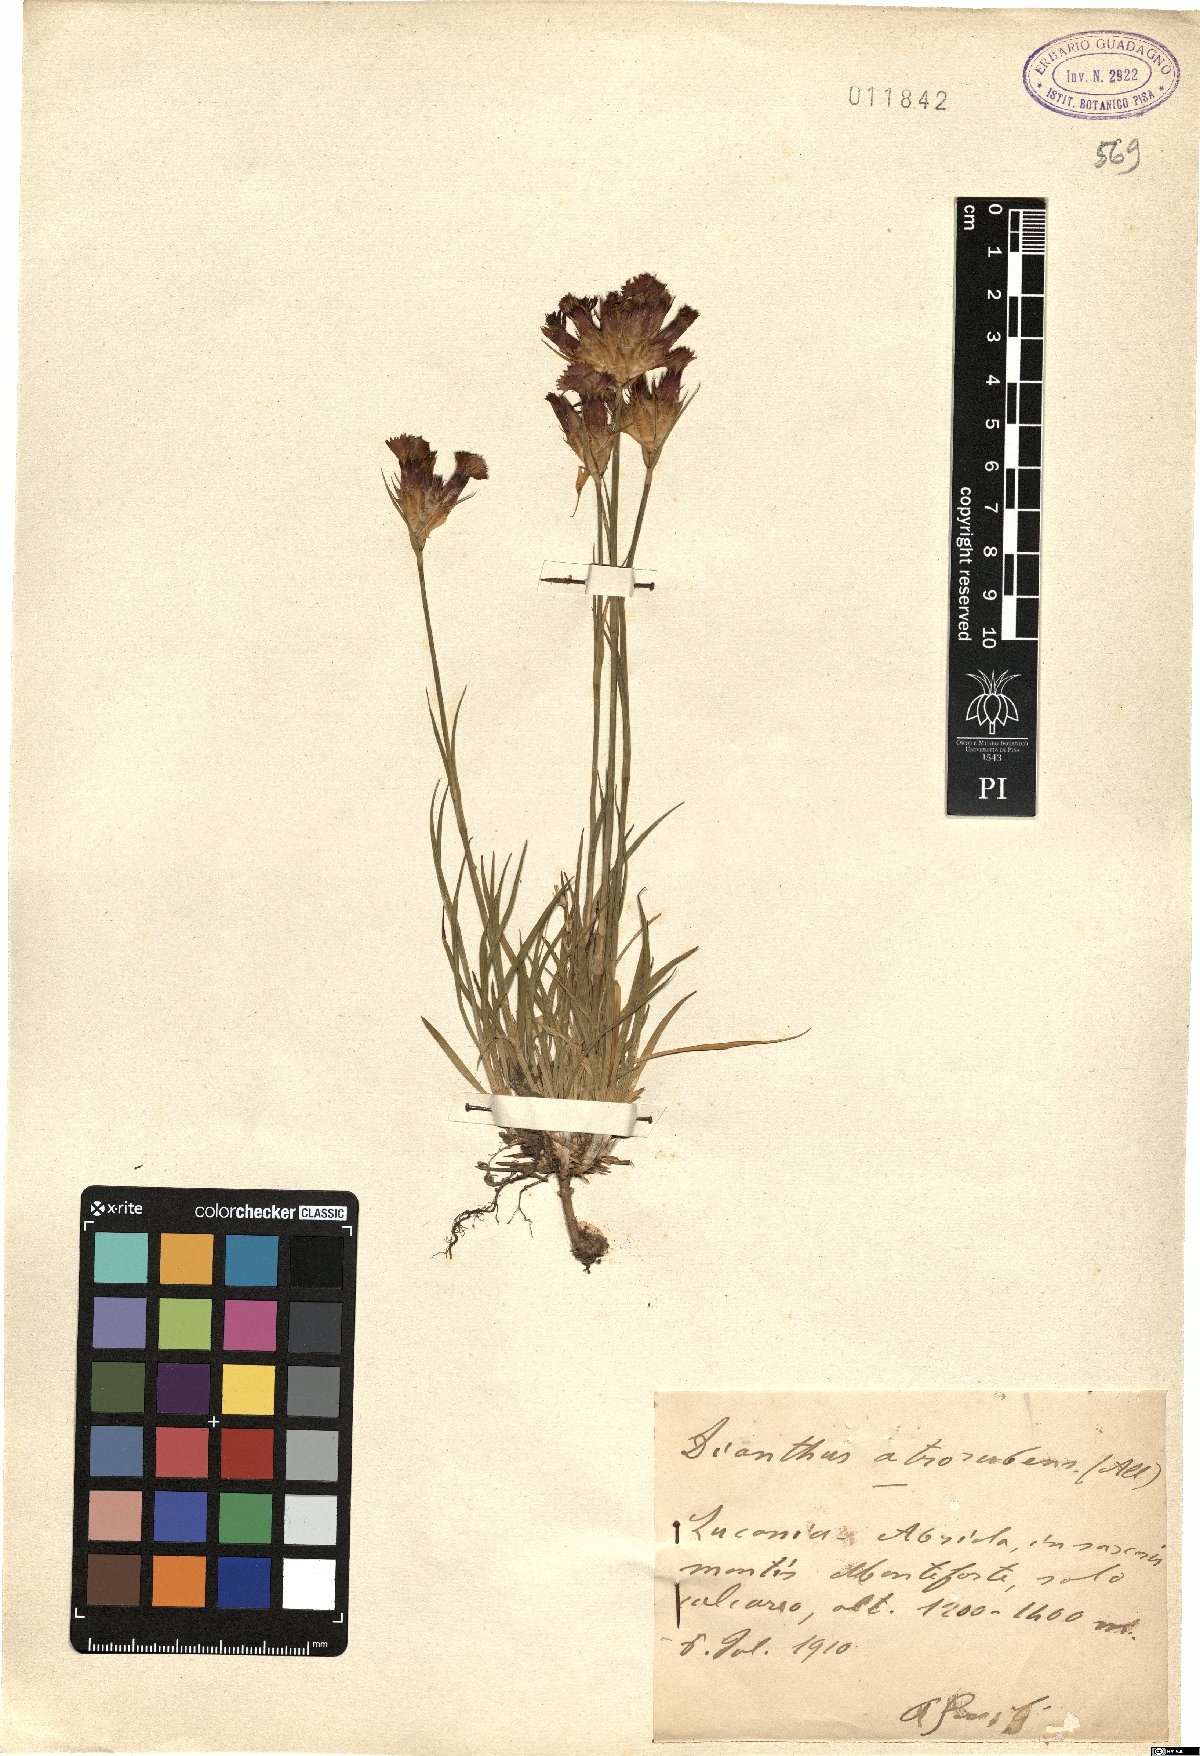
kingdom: Plantae
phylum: Tracheophyta
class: Magnoliopsida
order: Caryophyllales
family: Caryophyllaceae
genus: Dianthus
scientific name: Dianthus carthusianorum
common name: Carthusian pink
